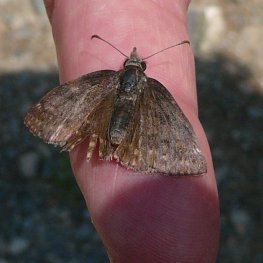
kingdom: Animalia
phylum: Arthropoda
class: Insecta
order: Lepidoptera
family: Hesperiidae
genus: Erynnis
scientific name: Erynnis icelus
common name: Dreamy Duskywing
